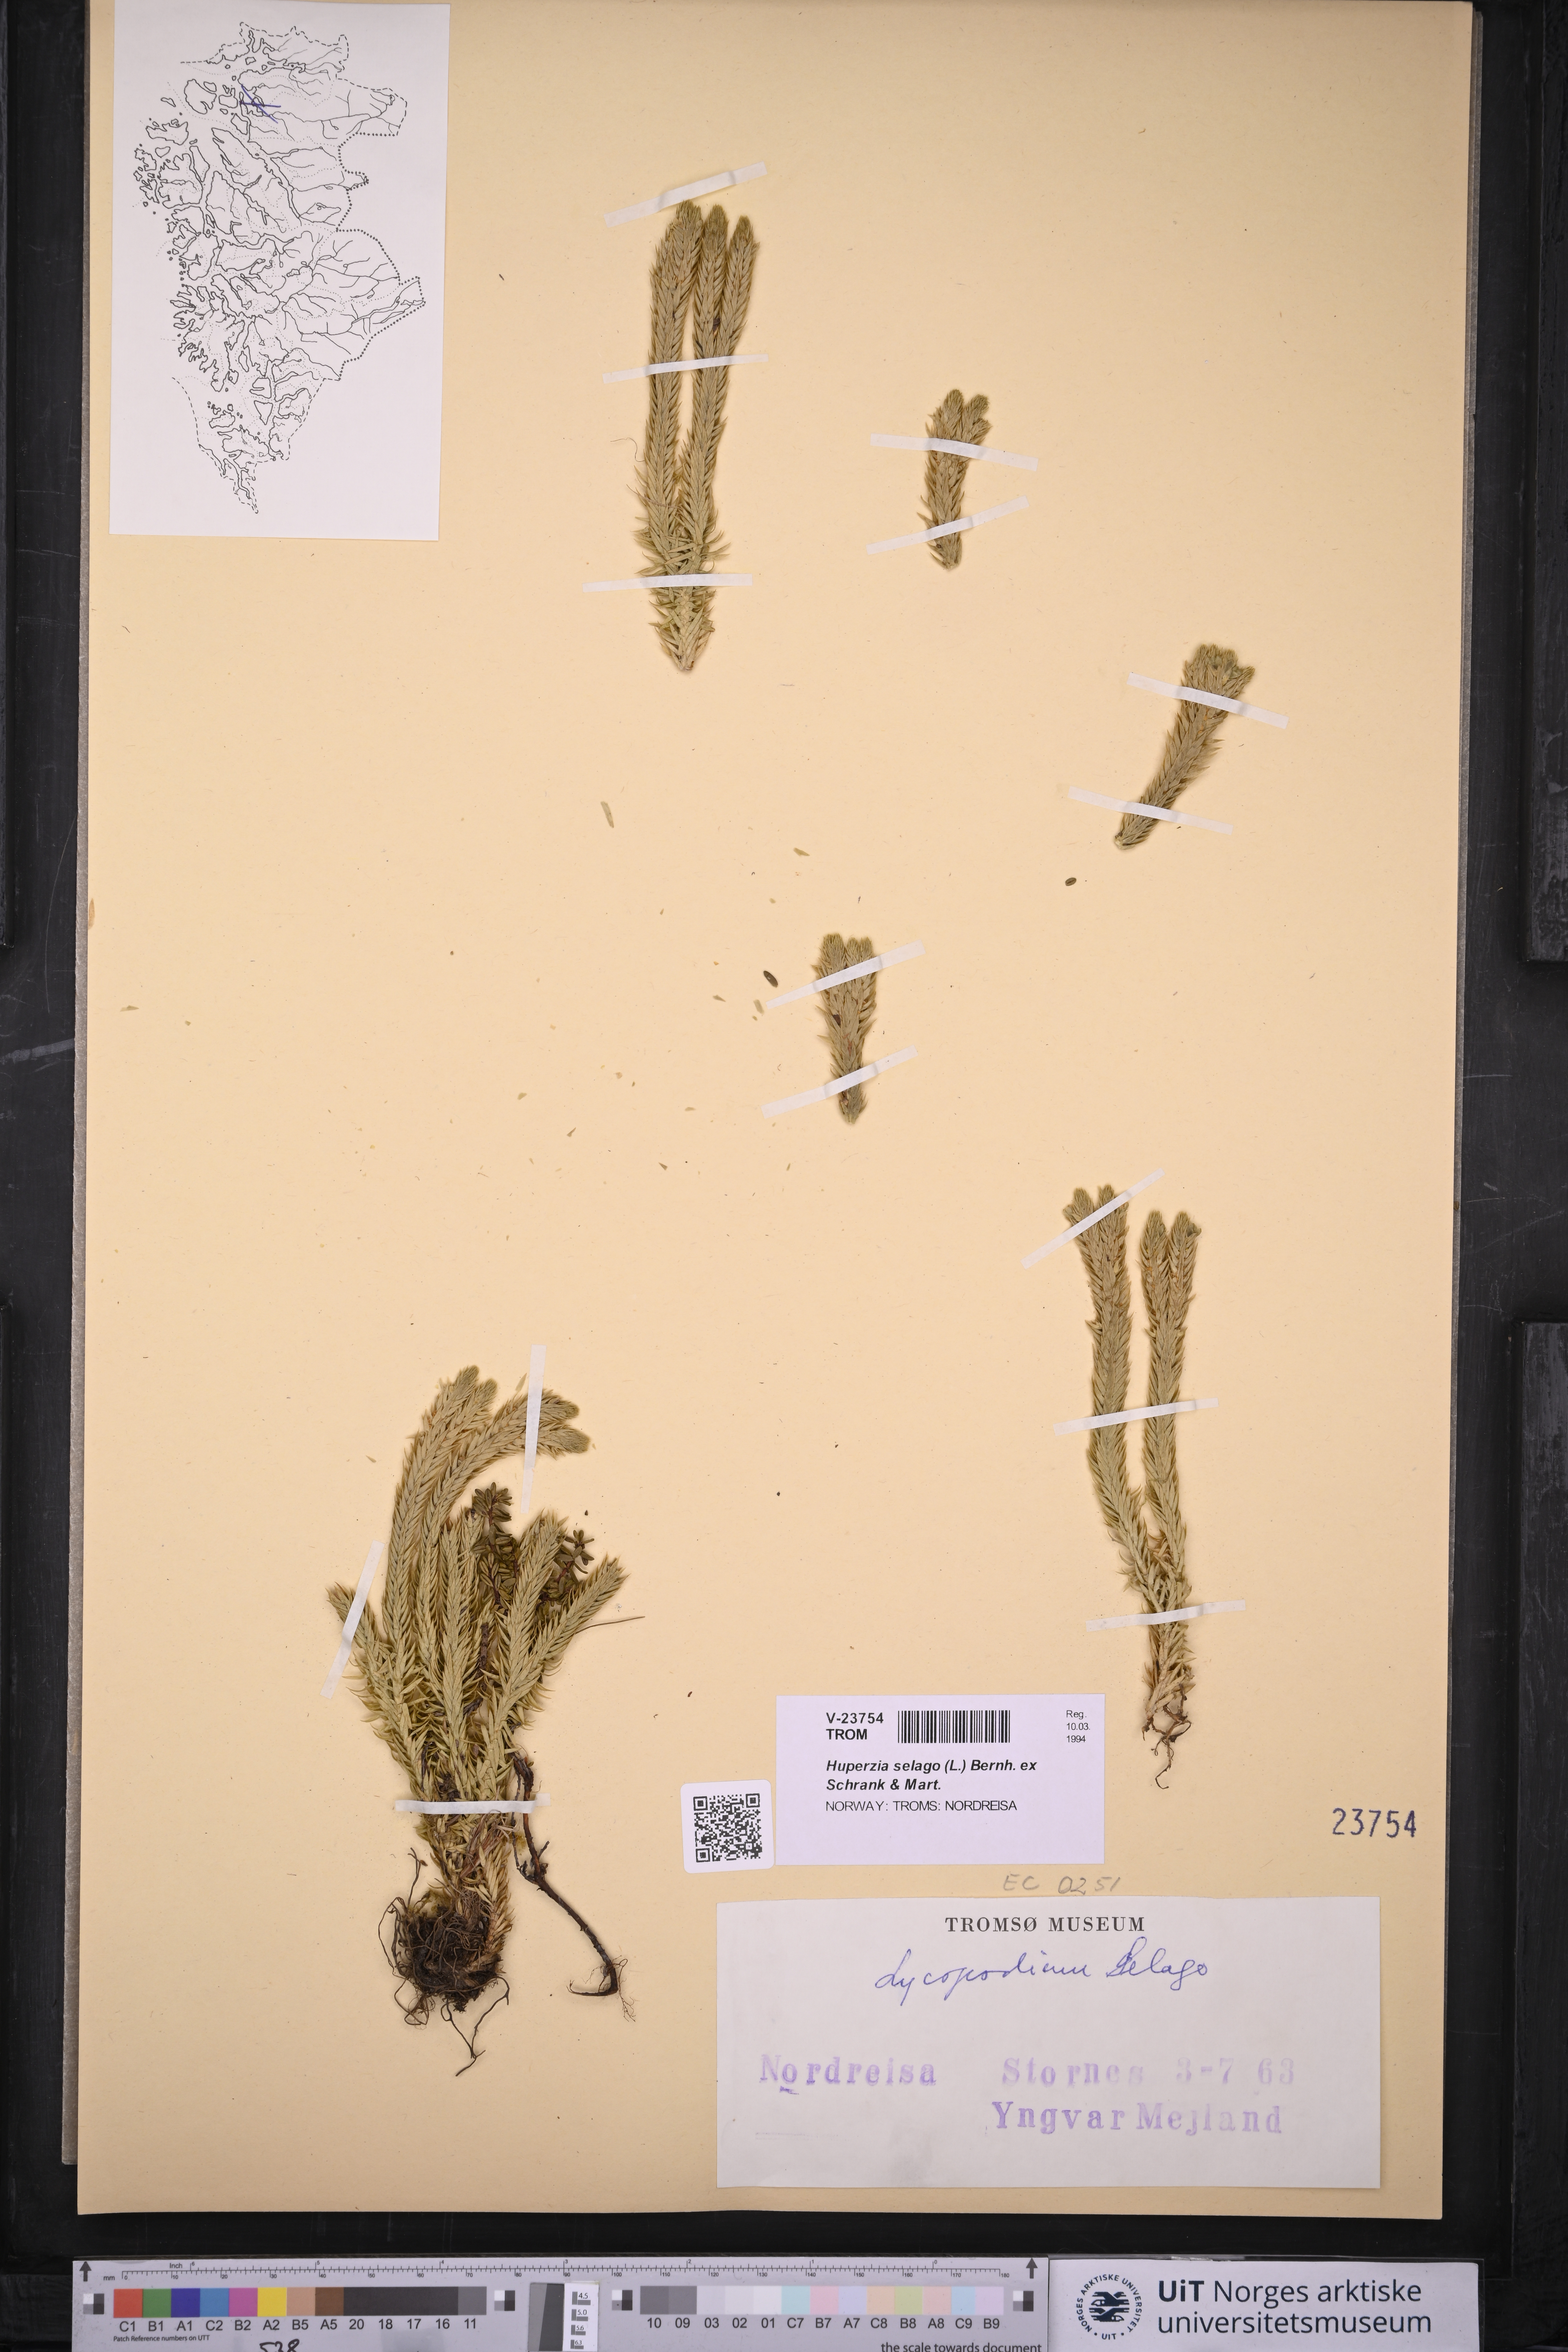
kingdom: Plantae
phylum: Tracheophyta
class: Lycopodiopsida
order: Lycopodiales
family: Lycopodiaceae
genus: Huperzia
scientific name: Huperzia selago
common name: Northern firmoss
